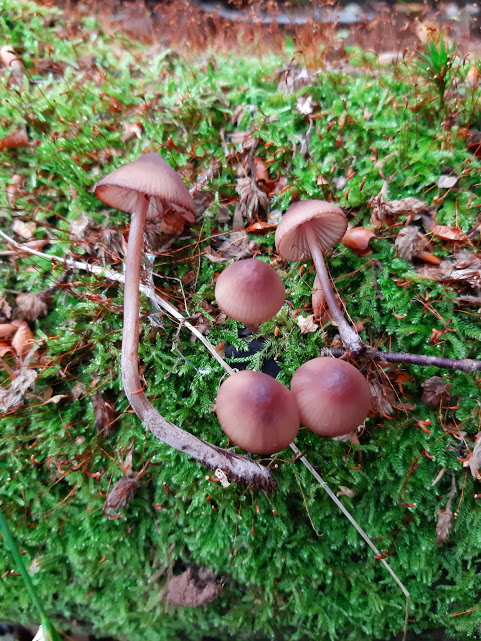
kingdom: Fungi
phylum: Basidiomycota
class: Agaricomycetes
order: Agaricales
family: Mycenaceae
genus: Mycena
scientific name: Mycena haematopus
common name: blødende huesvamp
